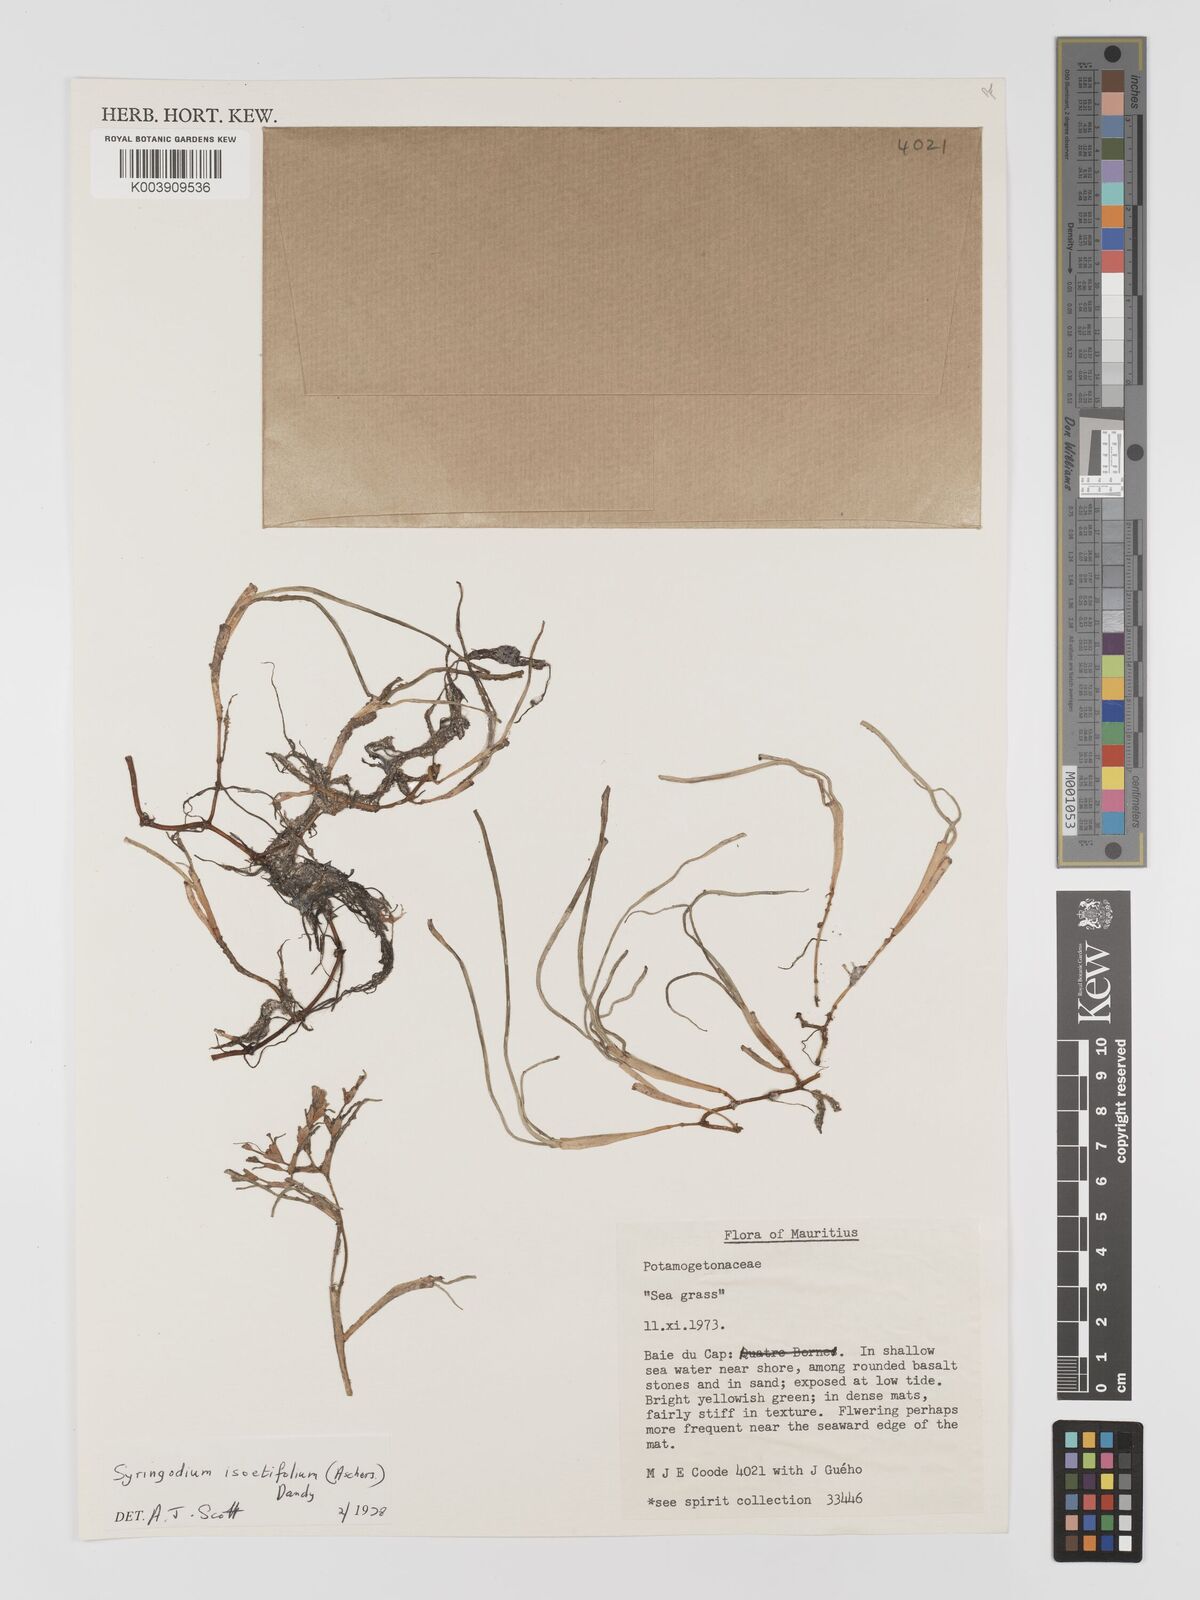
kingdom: Plantae
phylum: Tracheophyta
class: Liliopsida
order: Alismatales
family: Cymodoceaceae
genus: Syringodium
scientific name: Syringodium isoetifolium
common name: Species code: si
